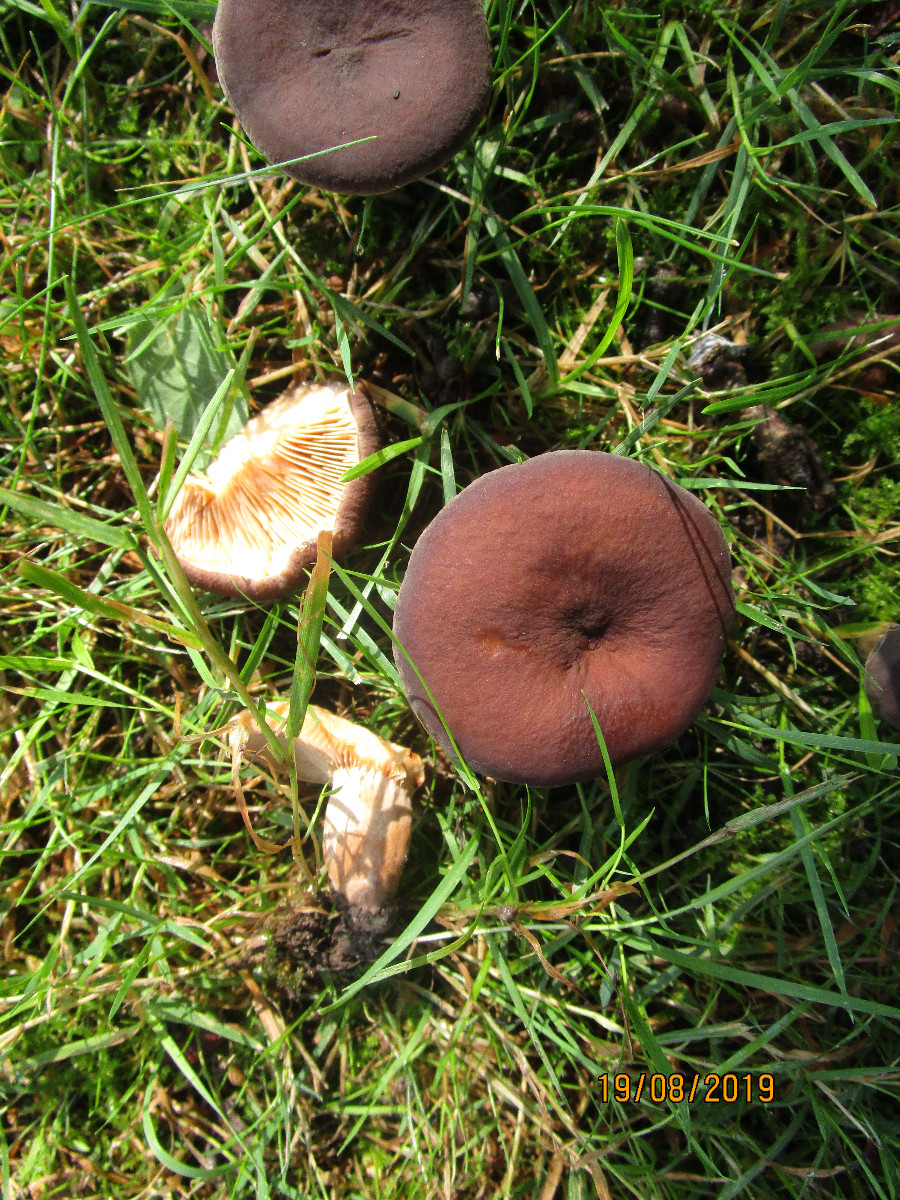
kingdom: Fungi
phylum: Basidiomycota
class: Agaricomycetes
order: Russulales
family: Russulaceae
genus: Lactarius
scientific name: Lactarius serifluus
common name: tæge-mælkehat
